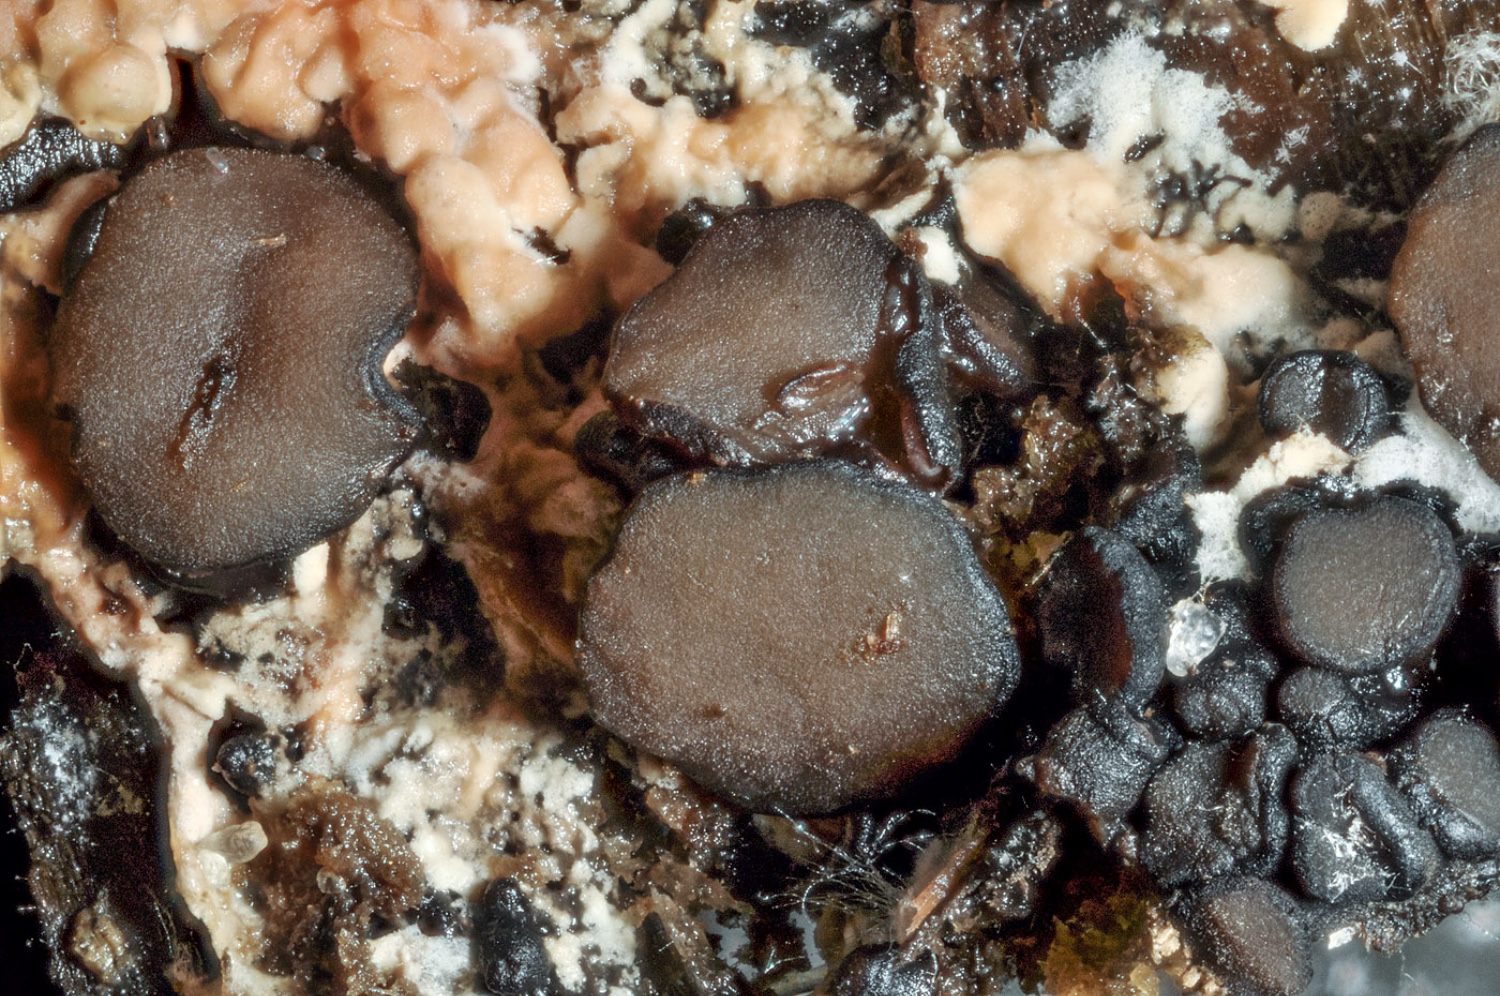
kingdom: Fungi
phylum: Ascomycota
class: Leotiomycetes
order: Helotiales
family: Gelatinodiscaceae
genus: Ascocoryne
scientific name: Ascocoryne albida
